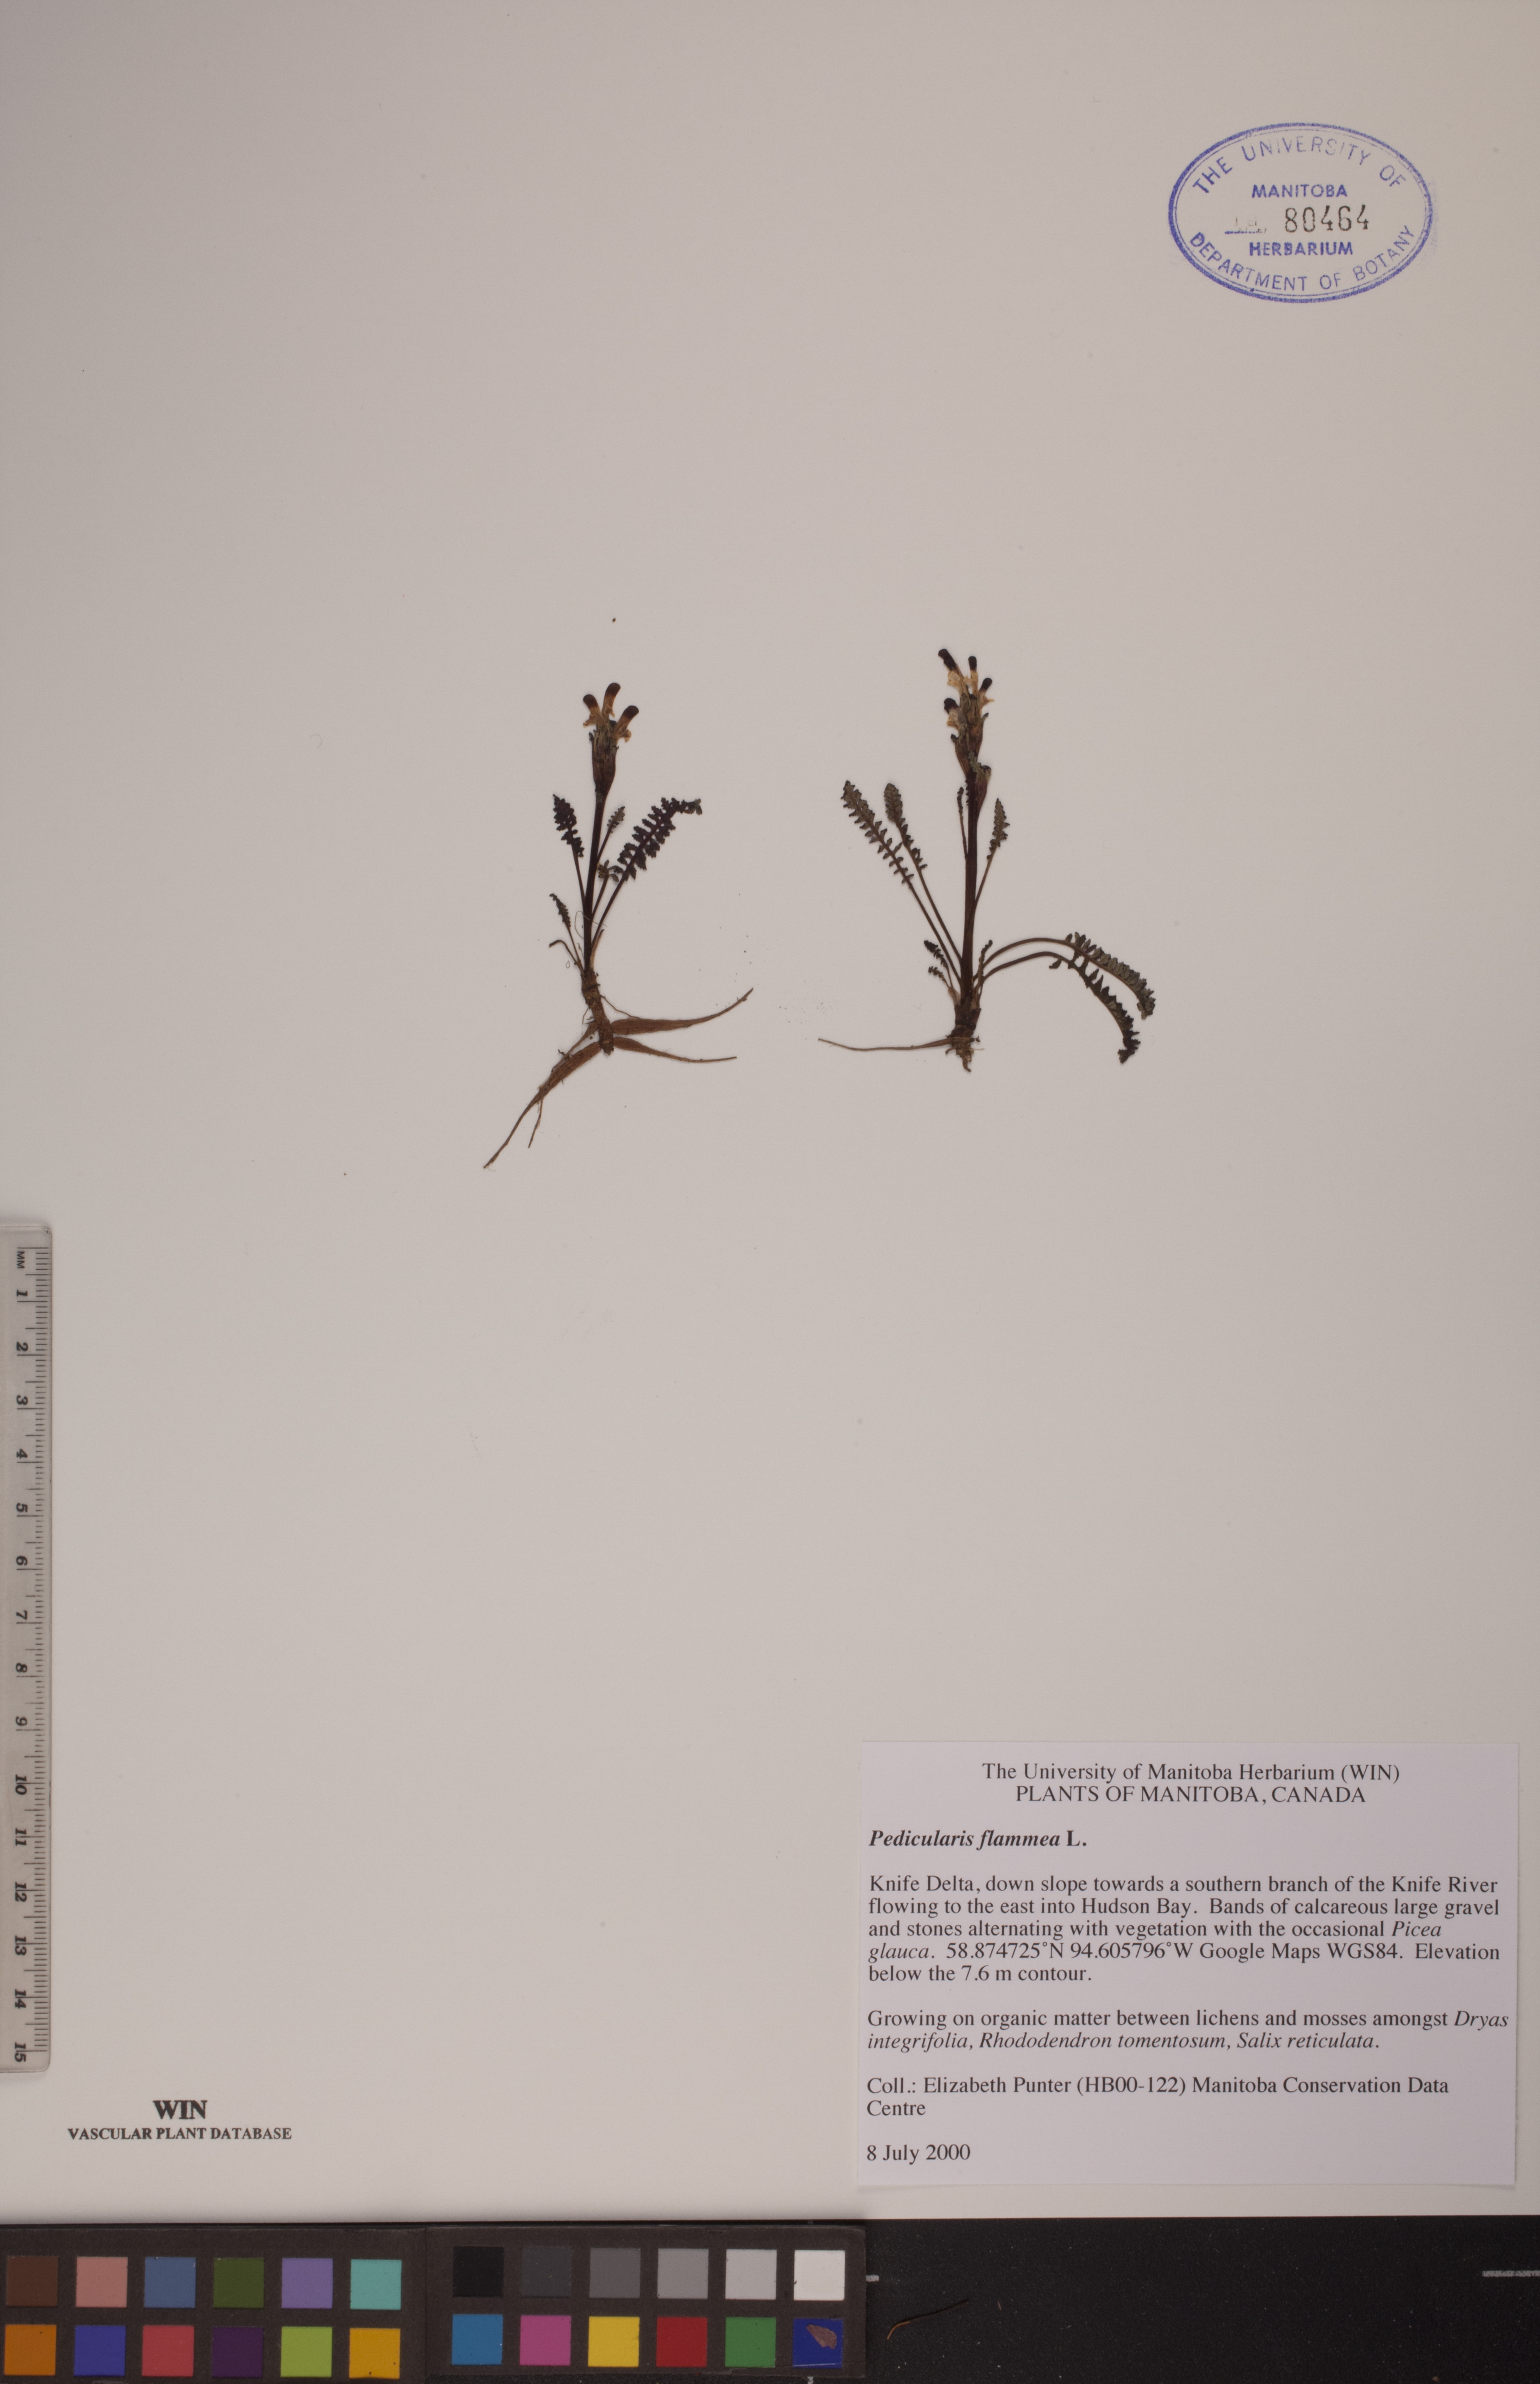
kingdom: Plantae
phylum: Tracheophyta
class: Magnoliopsida
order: Lamiales
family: Orobanchaceae
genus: Pedicularis
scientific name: Pedicularis flammea
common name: Flame-coloured lousewort
